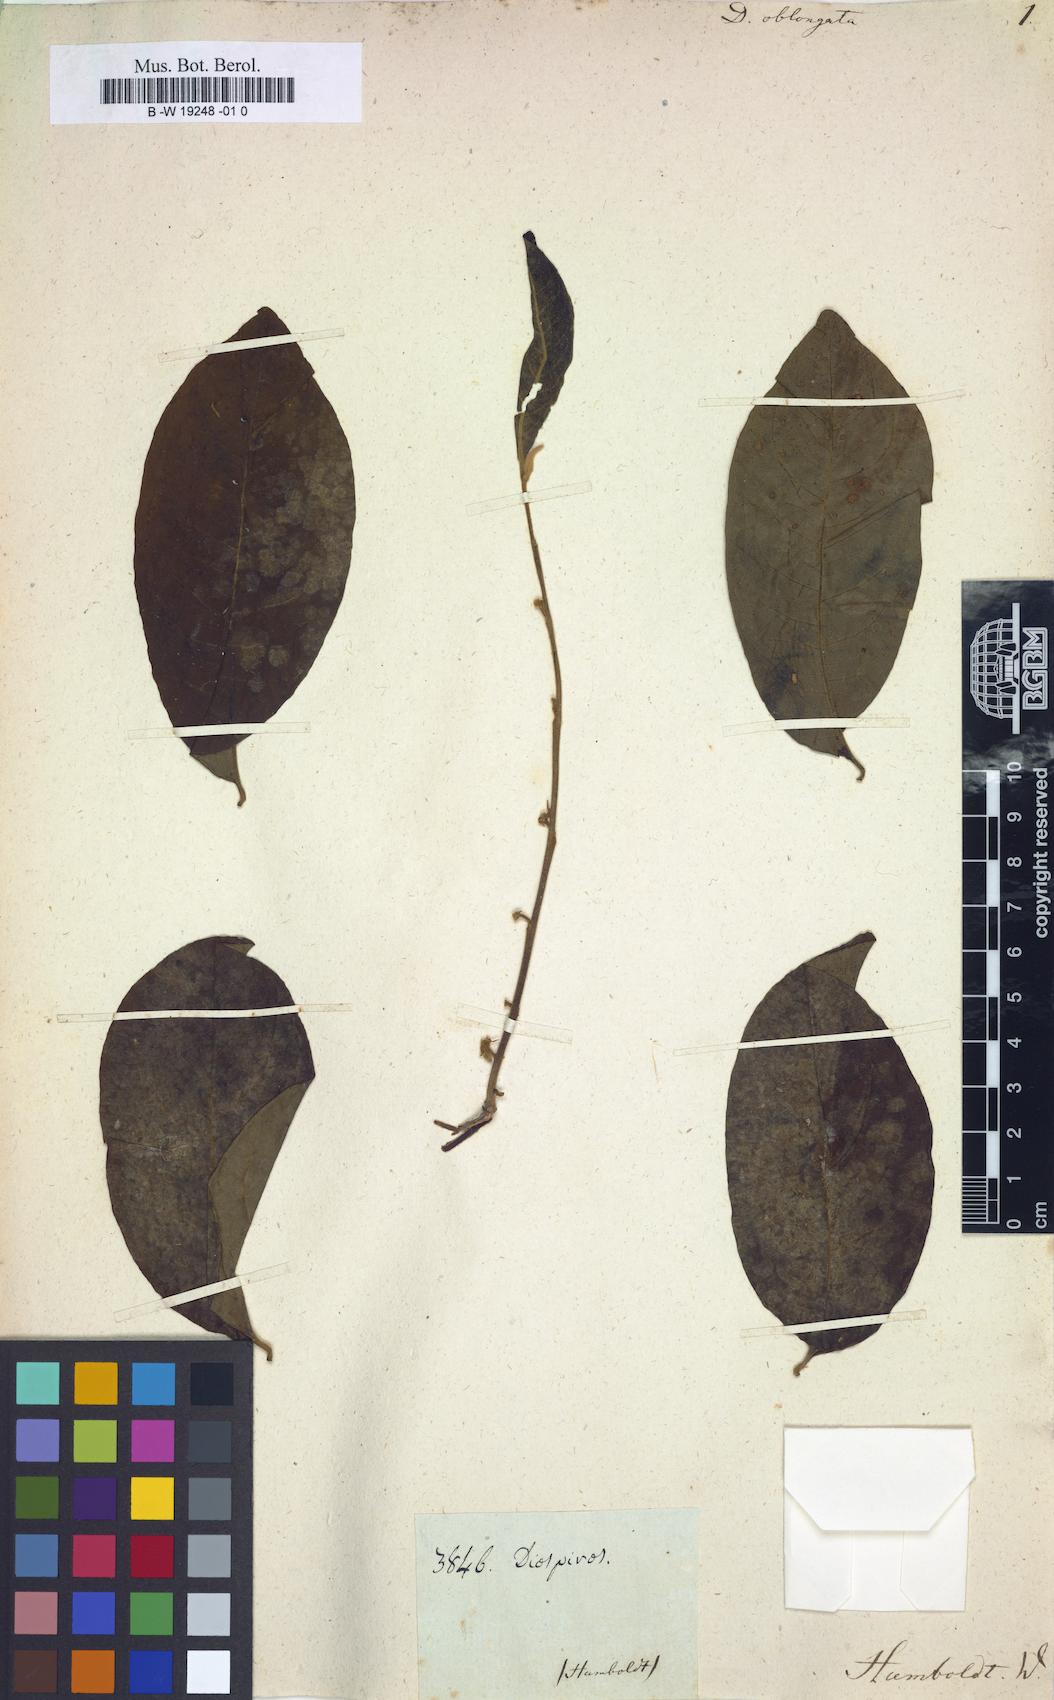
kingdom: Plantae
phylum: Tracheophyta
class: Magnoliopsida
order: Ericales
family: Ebenaceae
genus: Diospyros
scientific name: Diospyros oblonga
